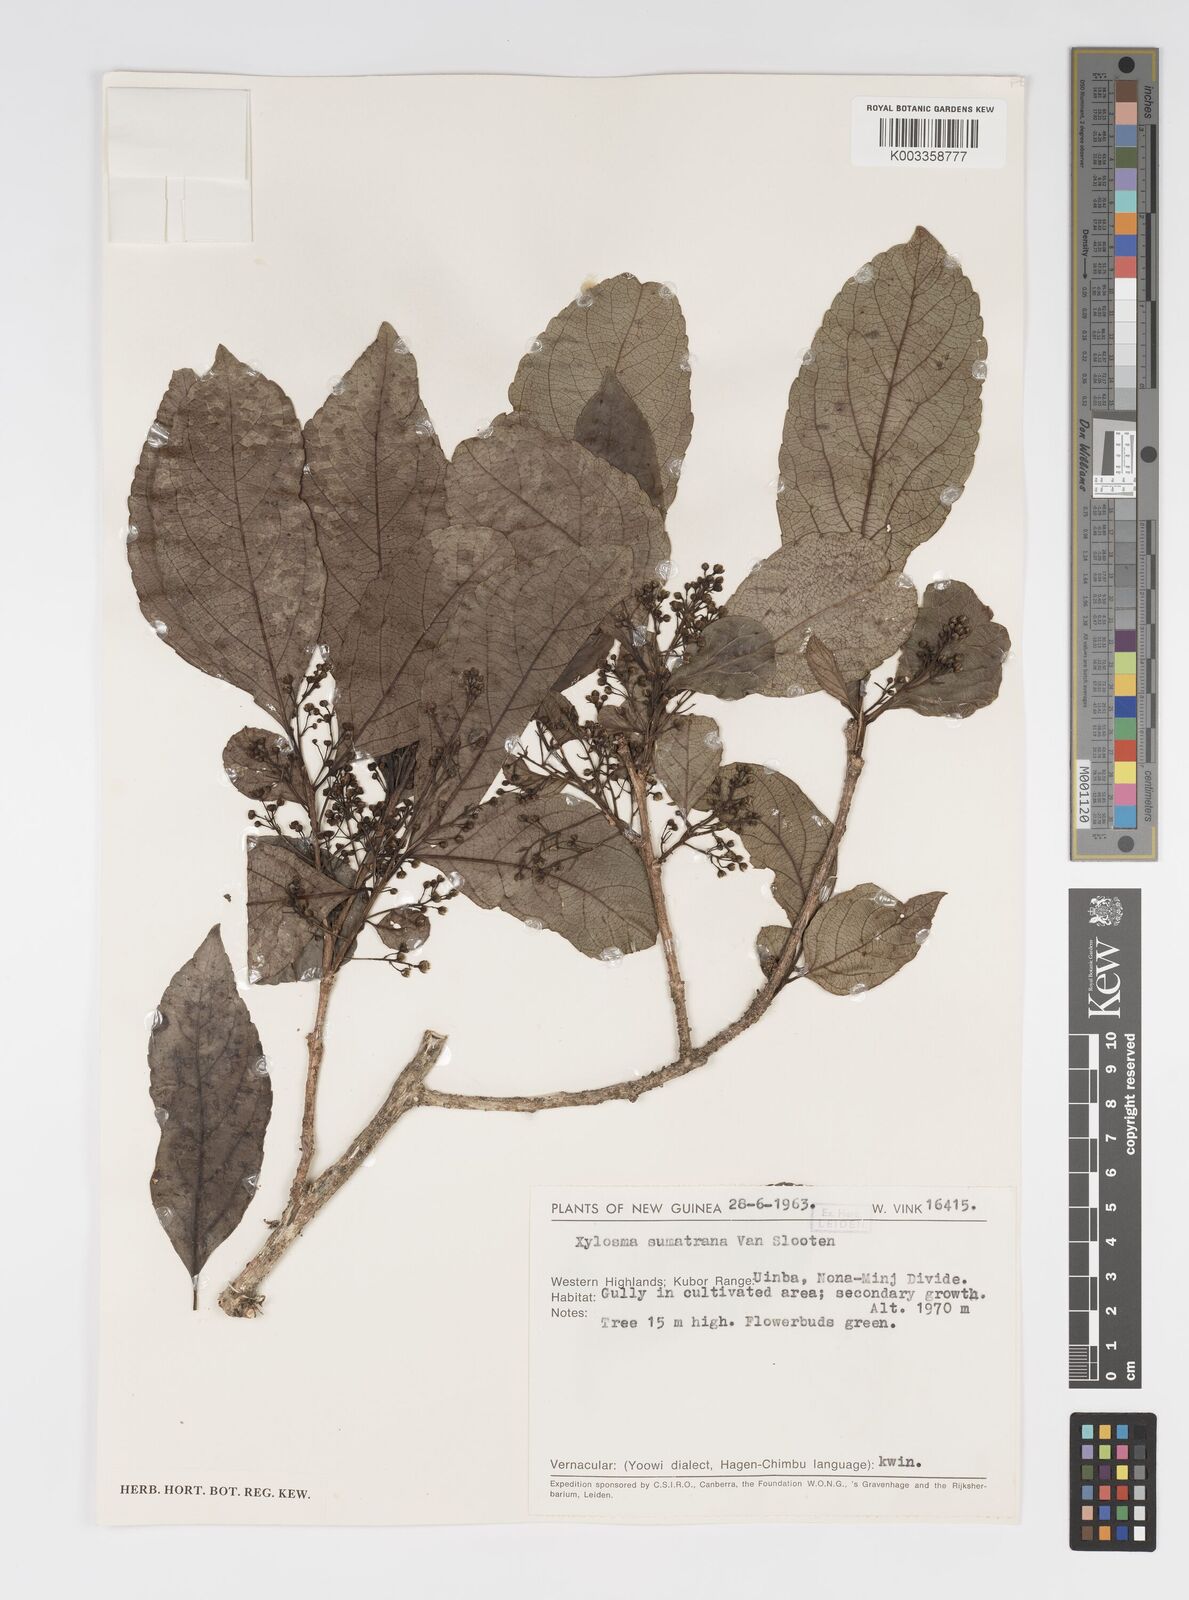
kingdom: Plantae
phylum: Tracheophyta
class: Magnoliopsida
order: Malpighiales
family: Salicaceae
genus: Xylosma
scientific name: Xylosma sumatrana
